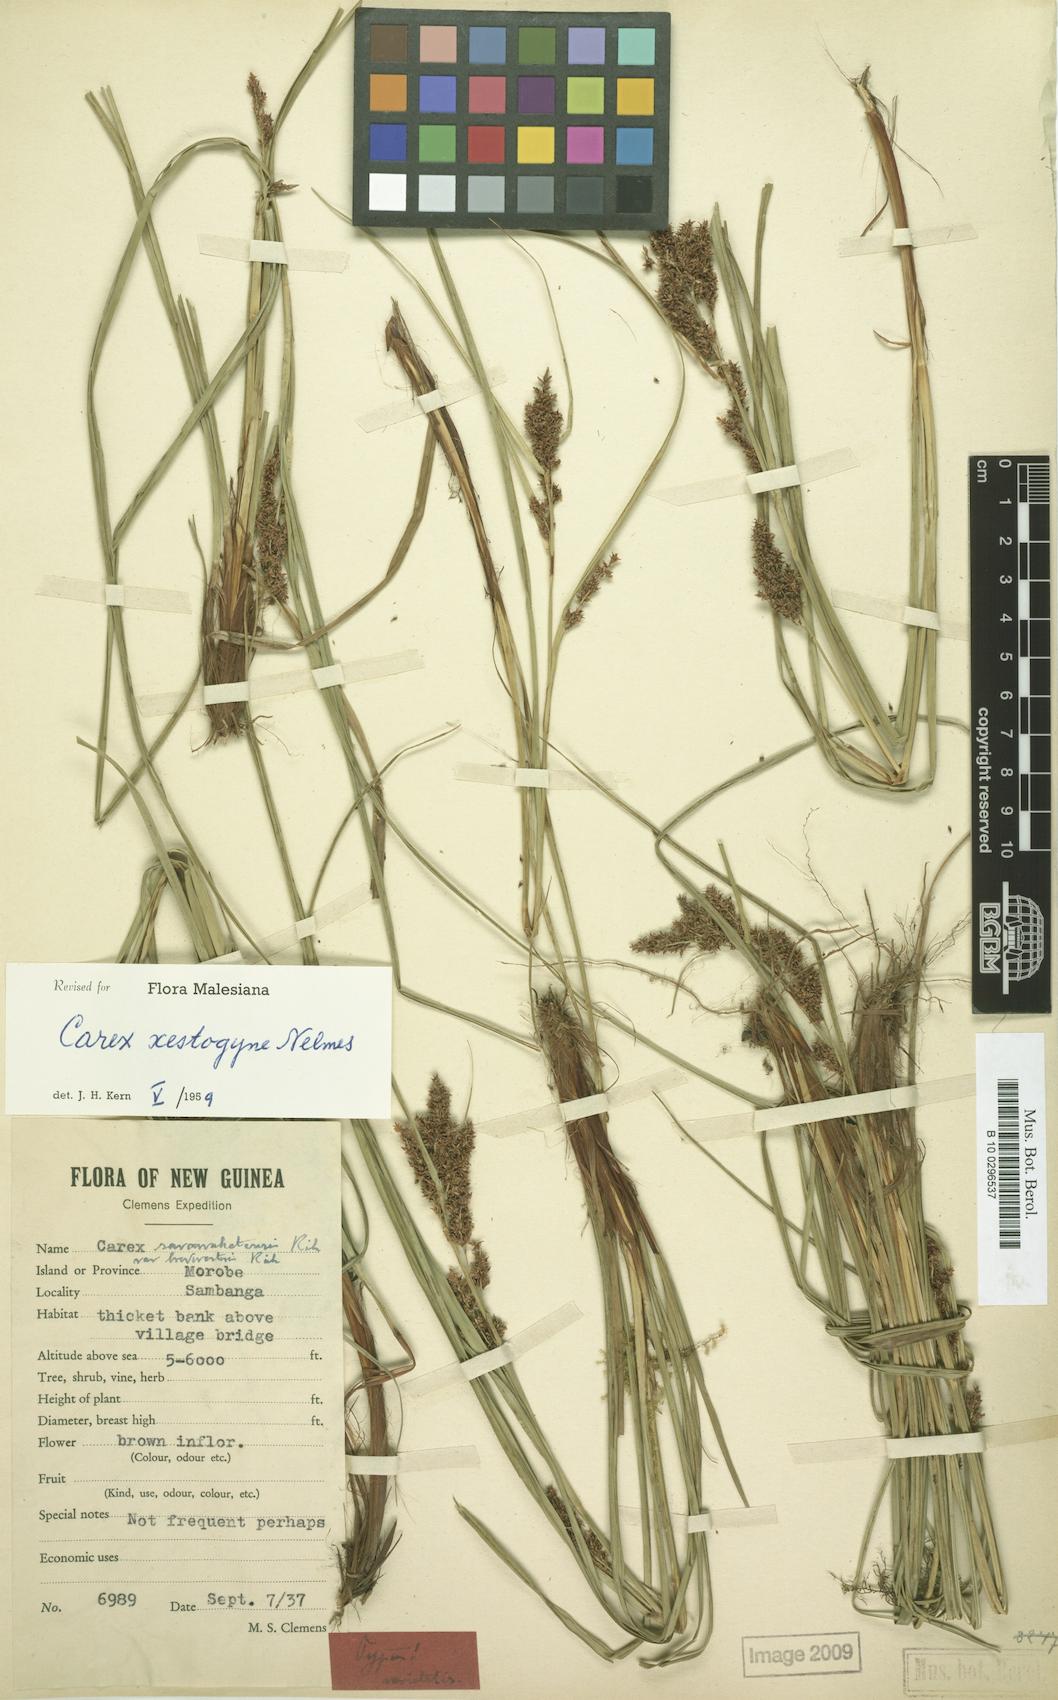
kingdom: Plantae
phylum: Tracheophyta
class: Liliopsida
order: Poales
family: Cyperaceae
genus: Carex
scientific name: Carex rafflesiana
